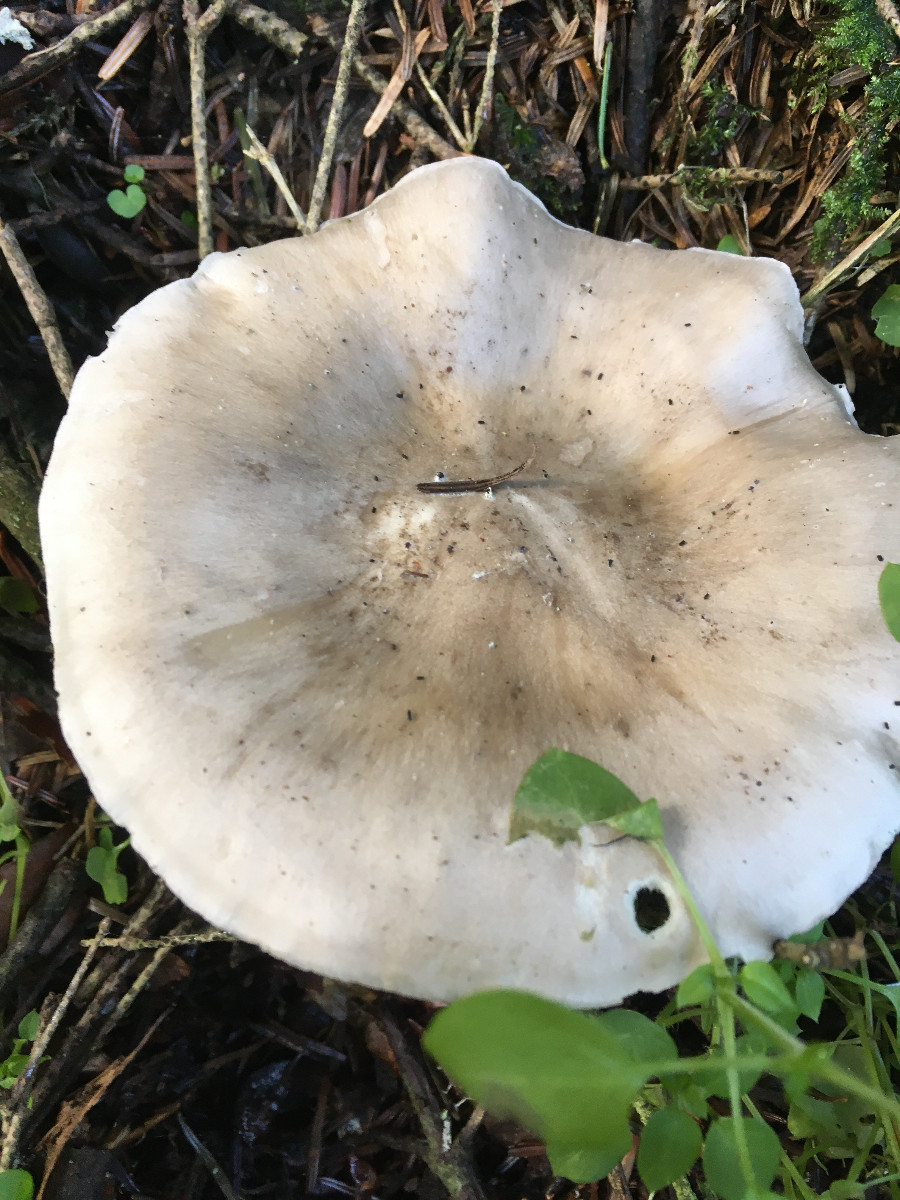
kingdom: Fungi
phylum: Basidiomycota
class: Agaricomycetes
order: Agaricales
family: Tricholomataceae
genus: Clitocybe
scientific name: Clitocybe nebularis
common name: tåge-tragthat
